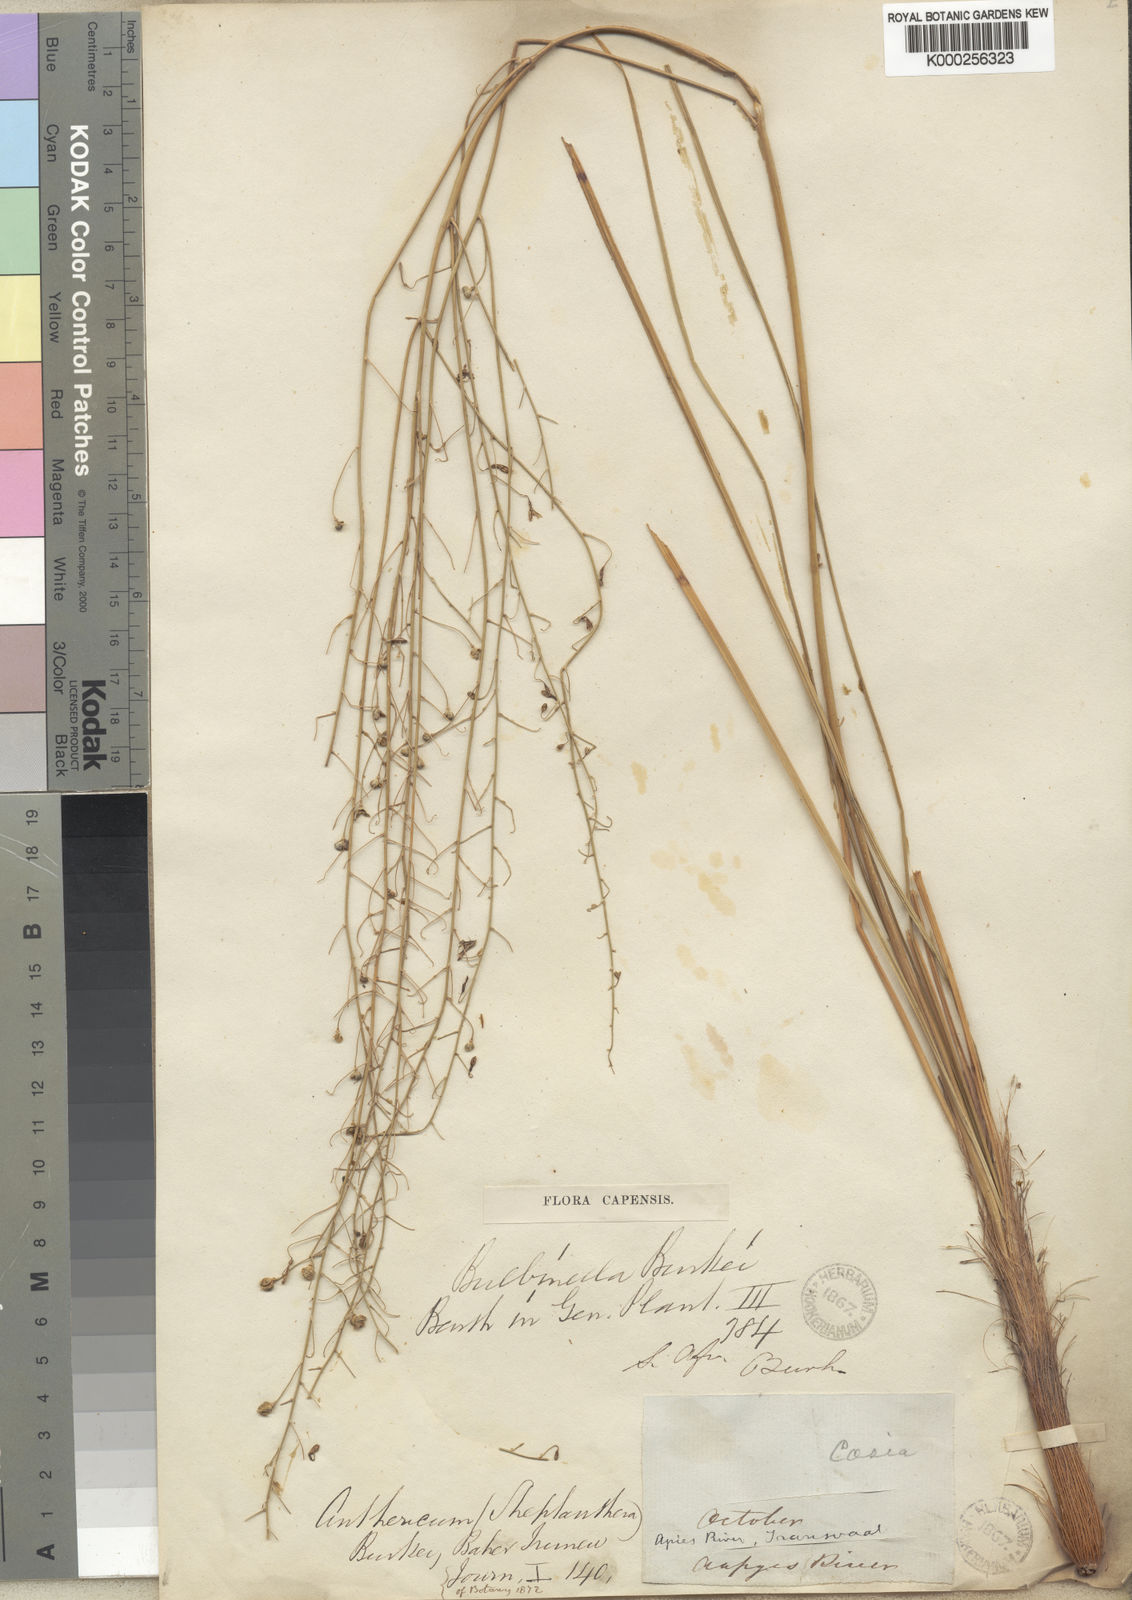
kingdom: Plantae
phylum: Tracheophyta
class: Liliopsida
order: Asparagales
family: Asphodelaceae
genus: Trachyandra
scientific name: Trachyandra burkei
